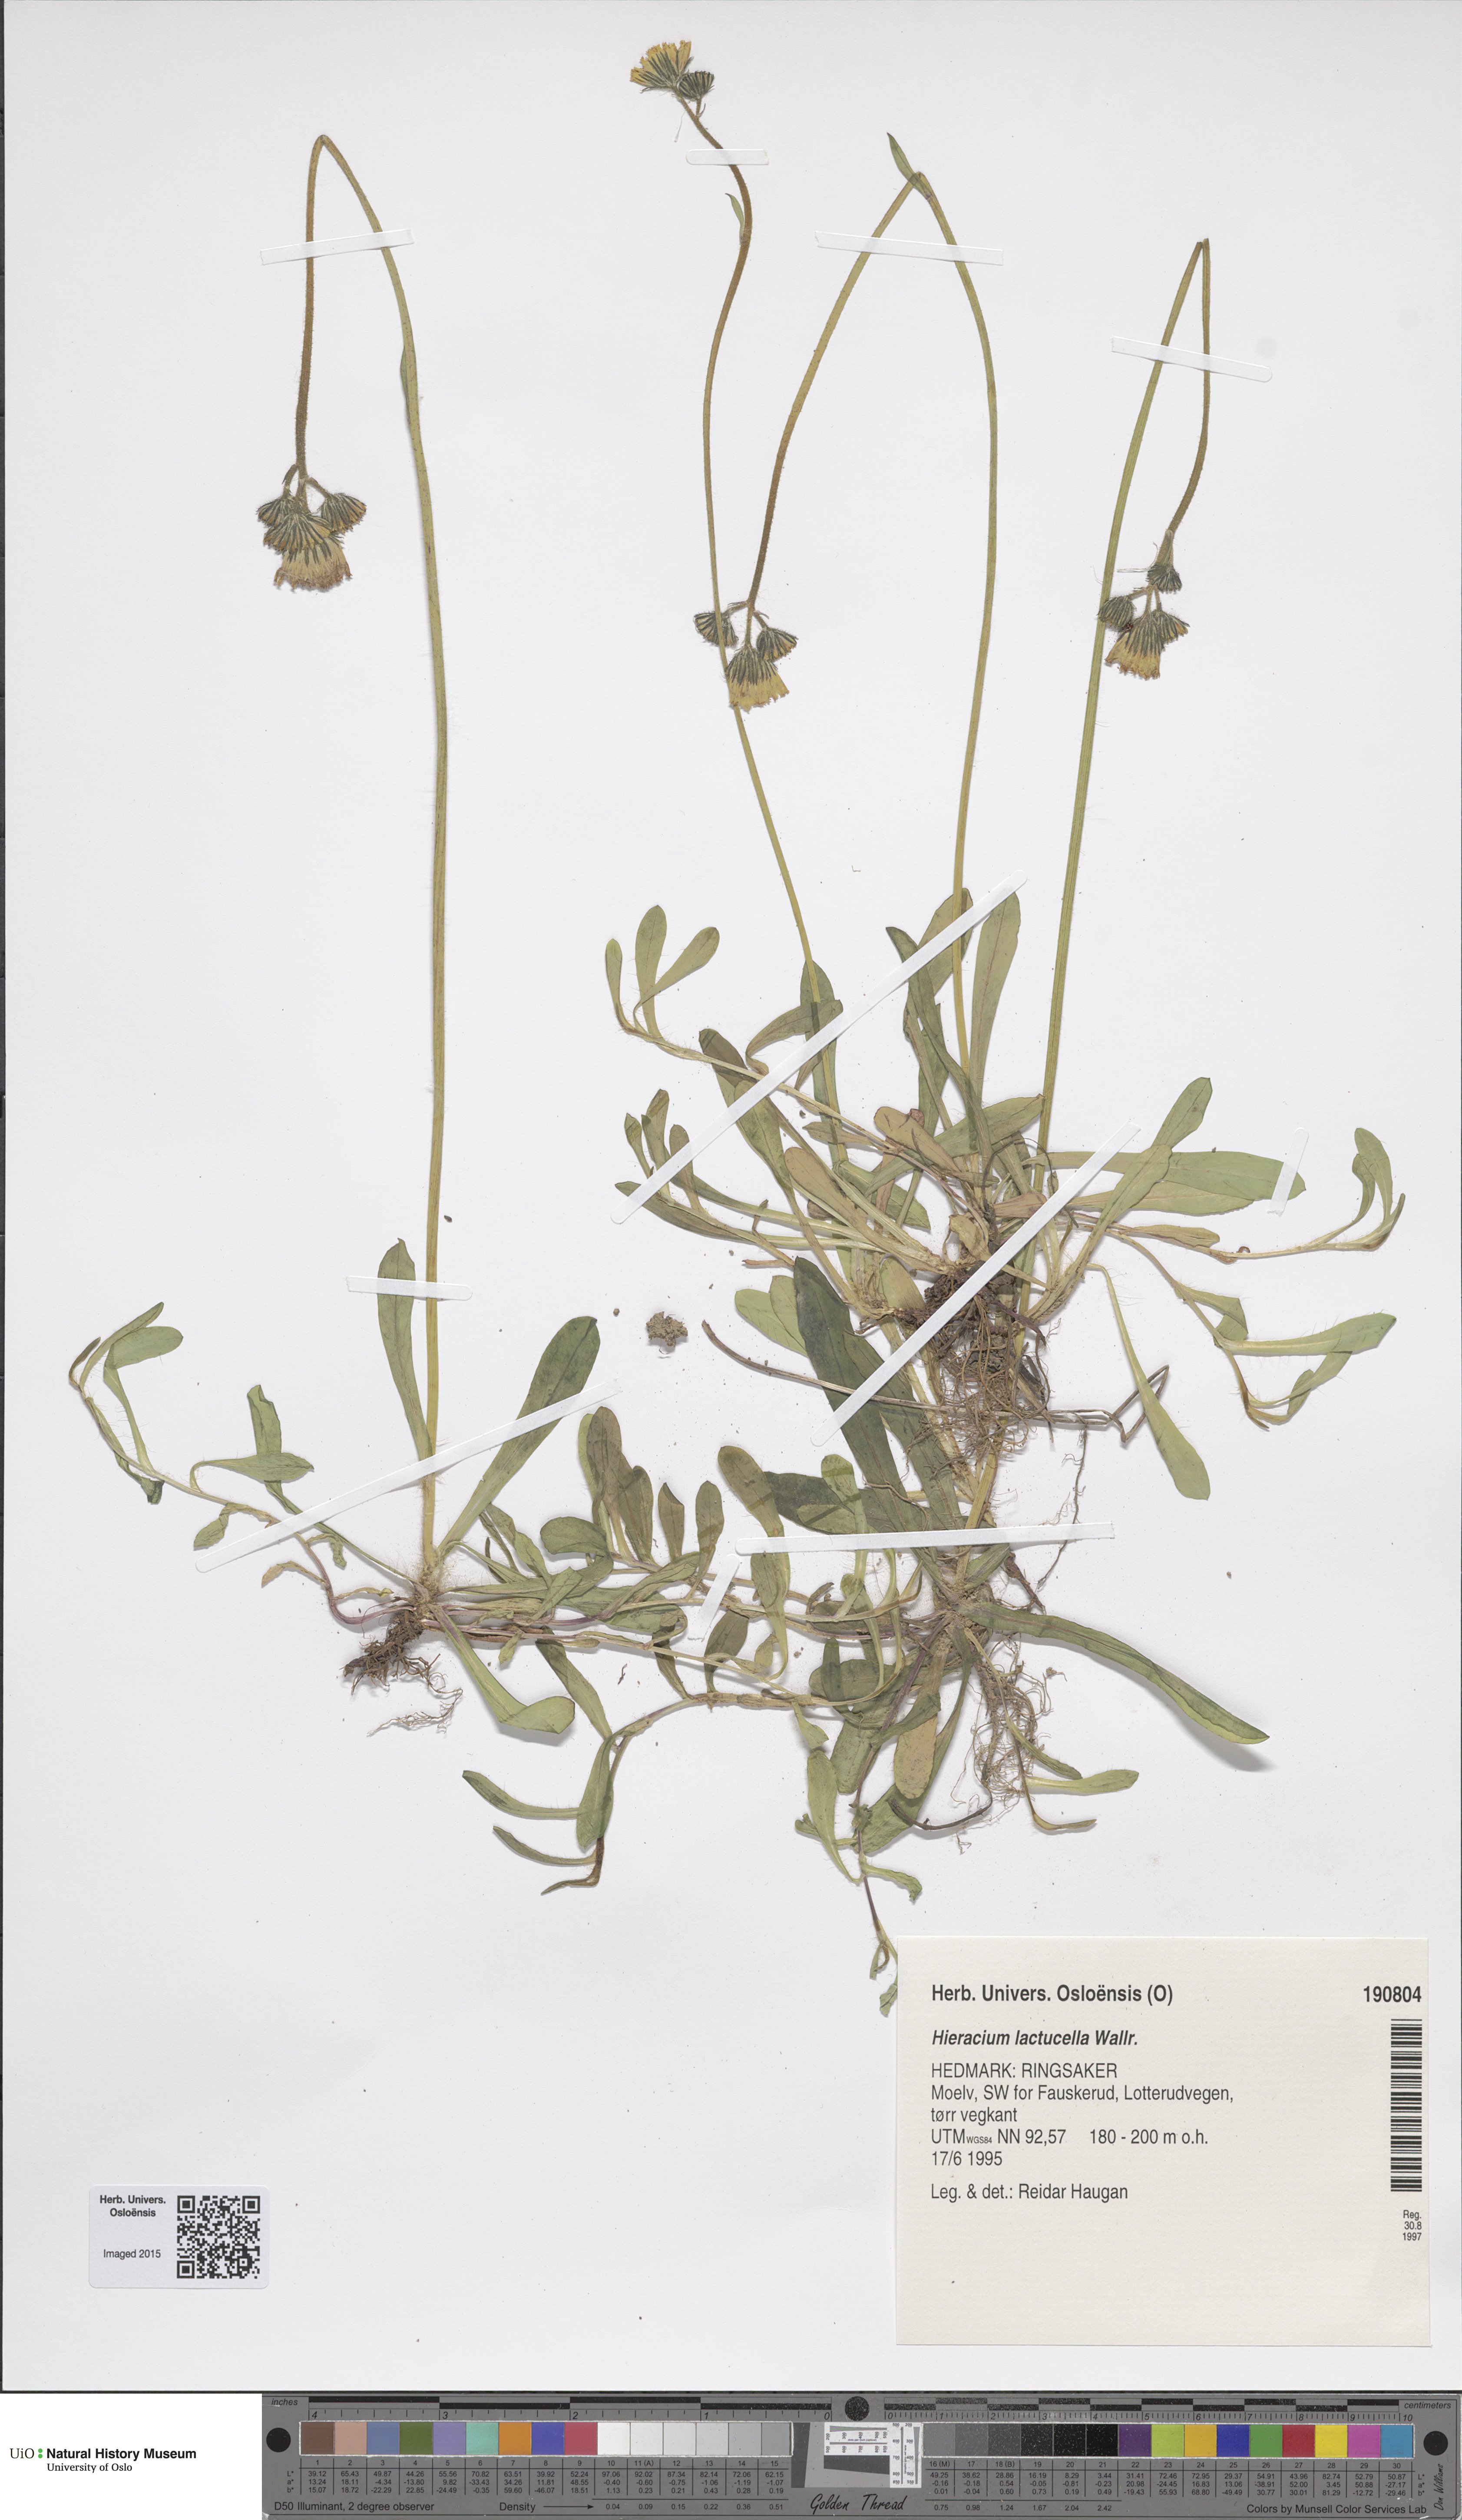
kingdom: Plantae
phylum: Tracheophyta
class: Magnoliopsida
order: Asterales
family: Asteraceae
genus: Pilosella
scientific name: Pilosella lactucella
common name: Glaucous fox-and-cubs
